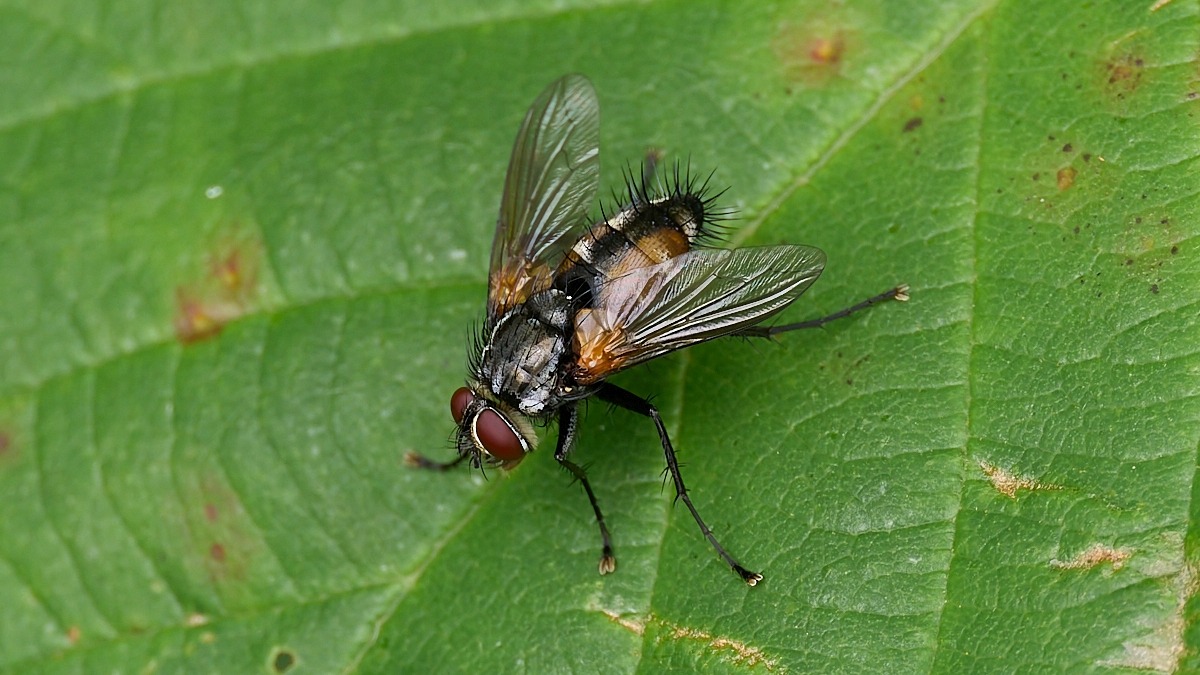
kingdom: Animalia
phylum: Arthropoda
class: Insecta
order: Diptera
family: Tachinidae
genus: Thelaira
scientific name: Thelaira nigripes
